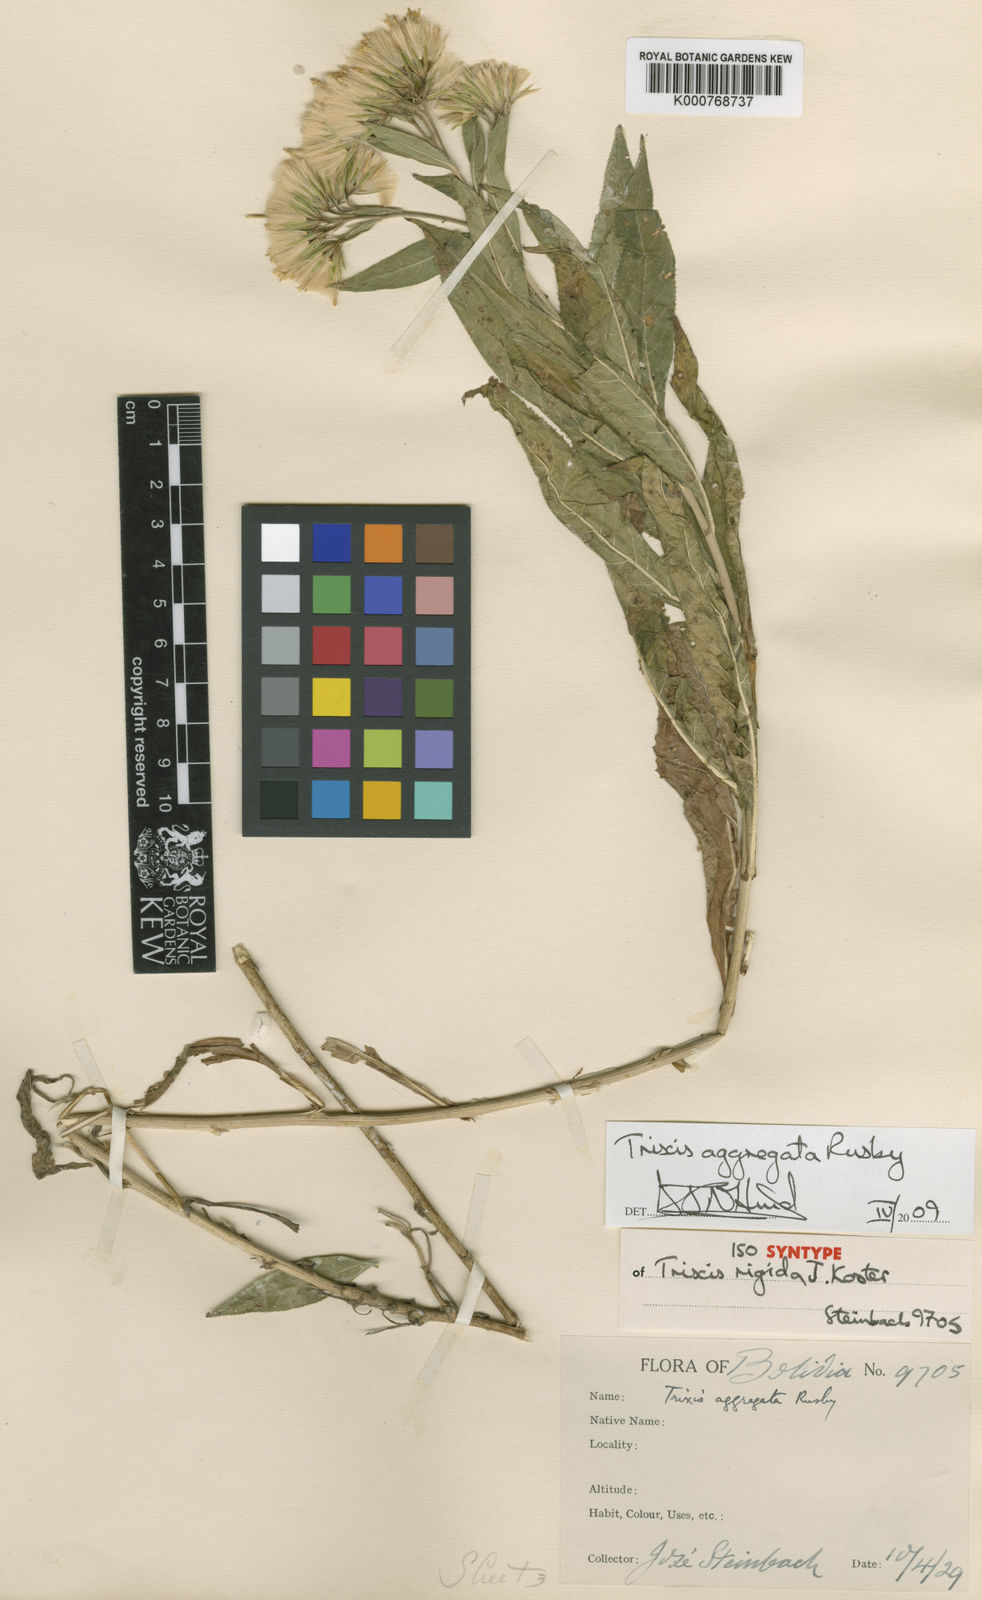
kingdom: Plantae
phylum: Tracheophyta
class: Magnoliopsida
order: Asterales
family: Asteraceae
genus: Trixis
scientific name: Trixis aggregata
